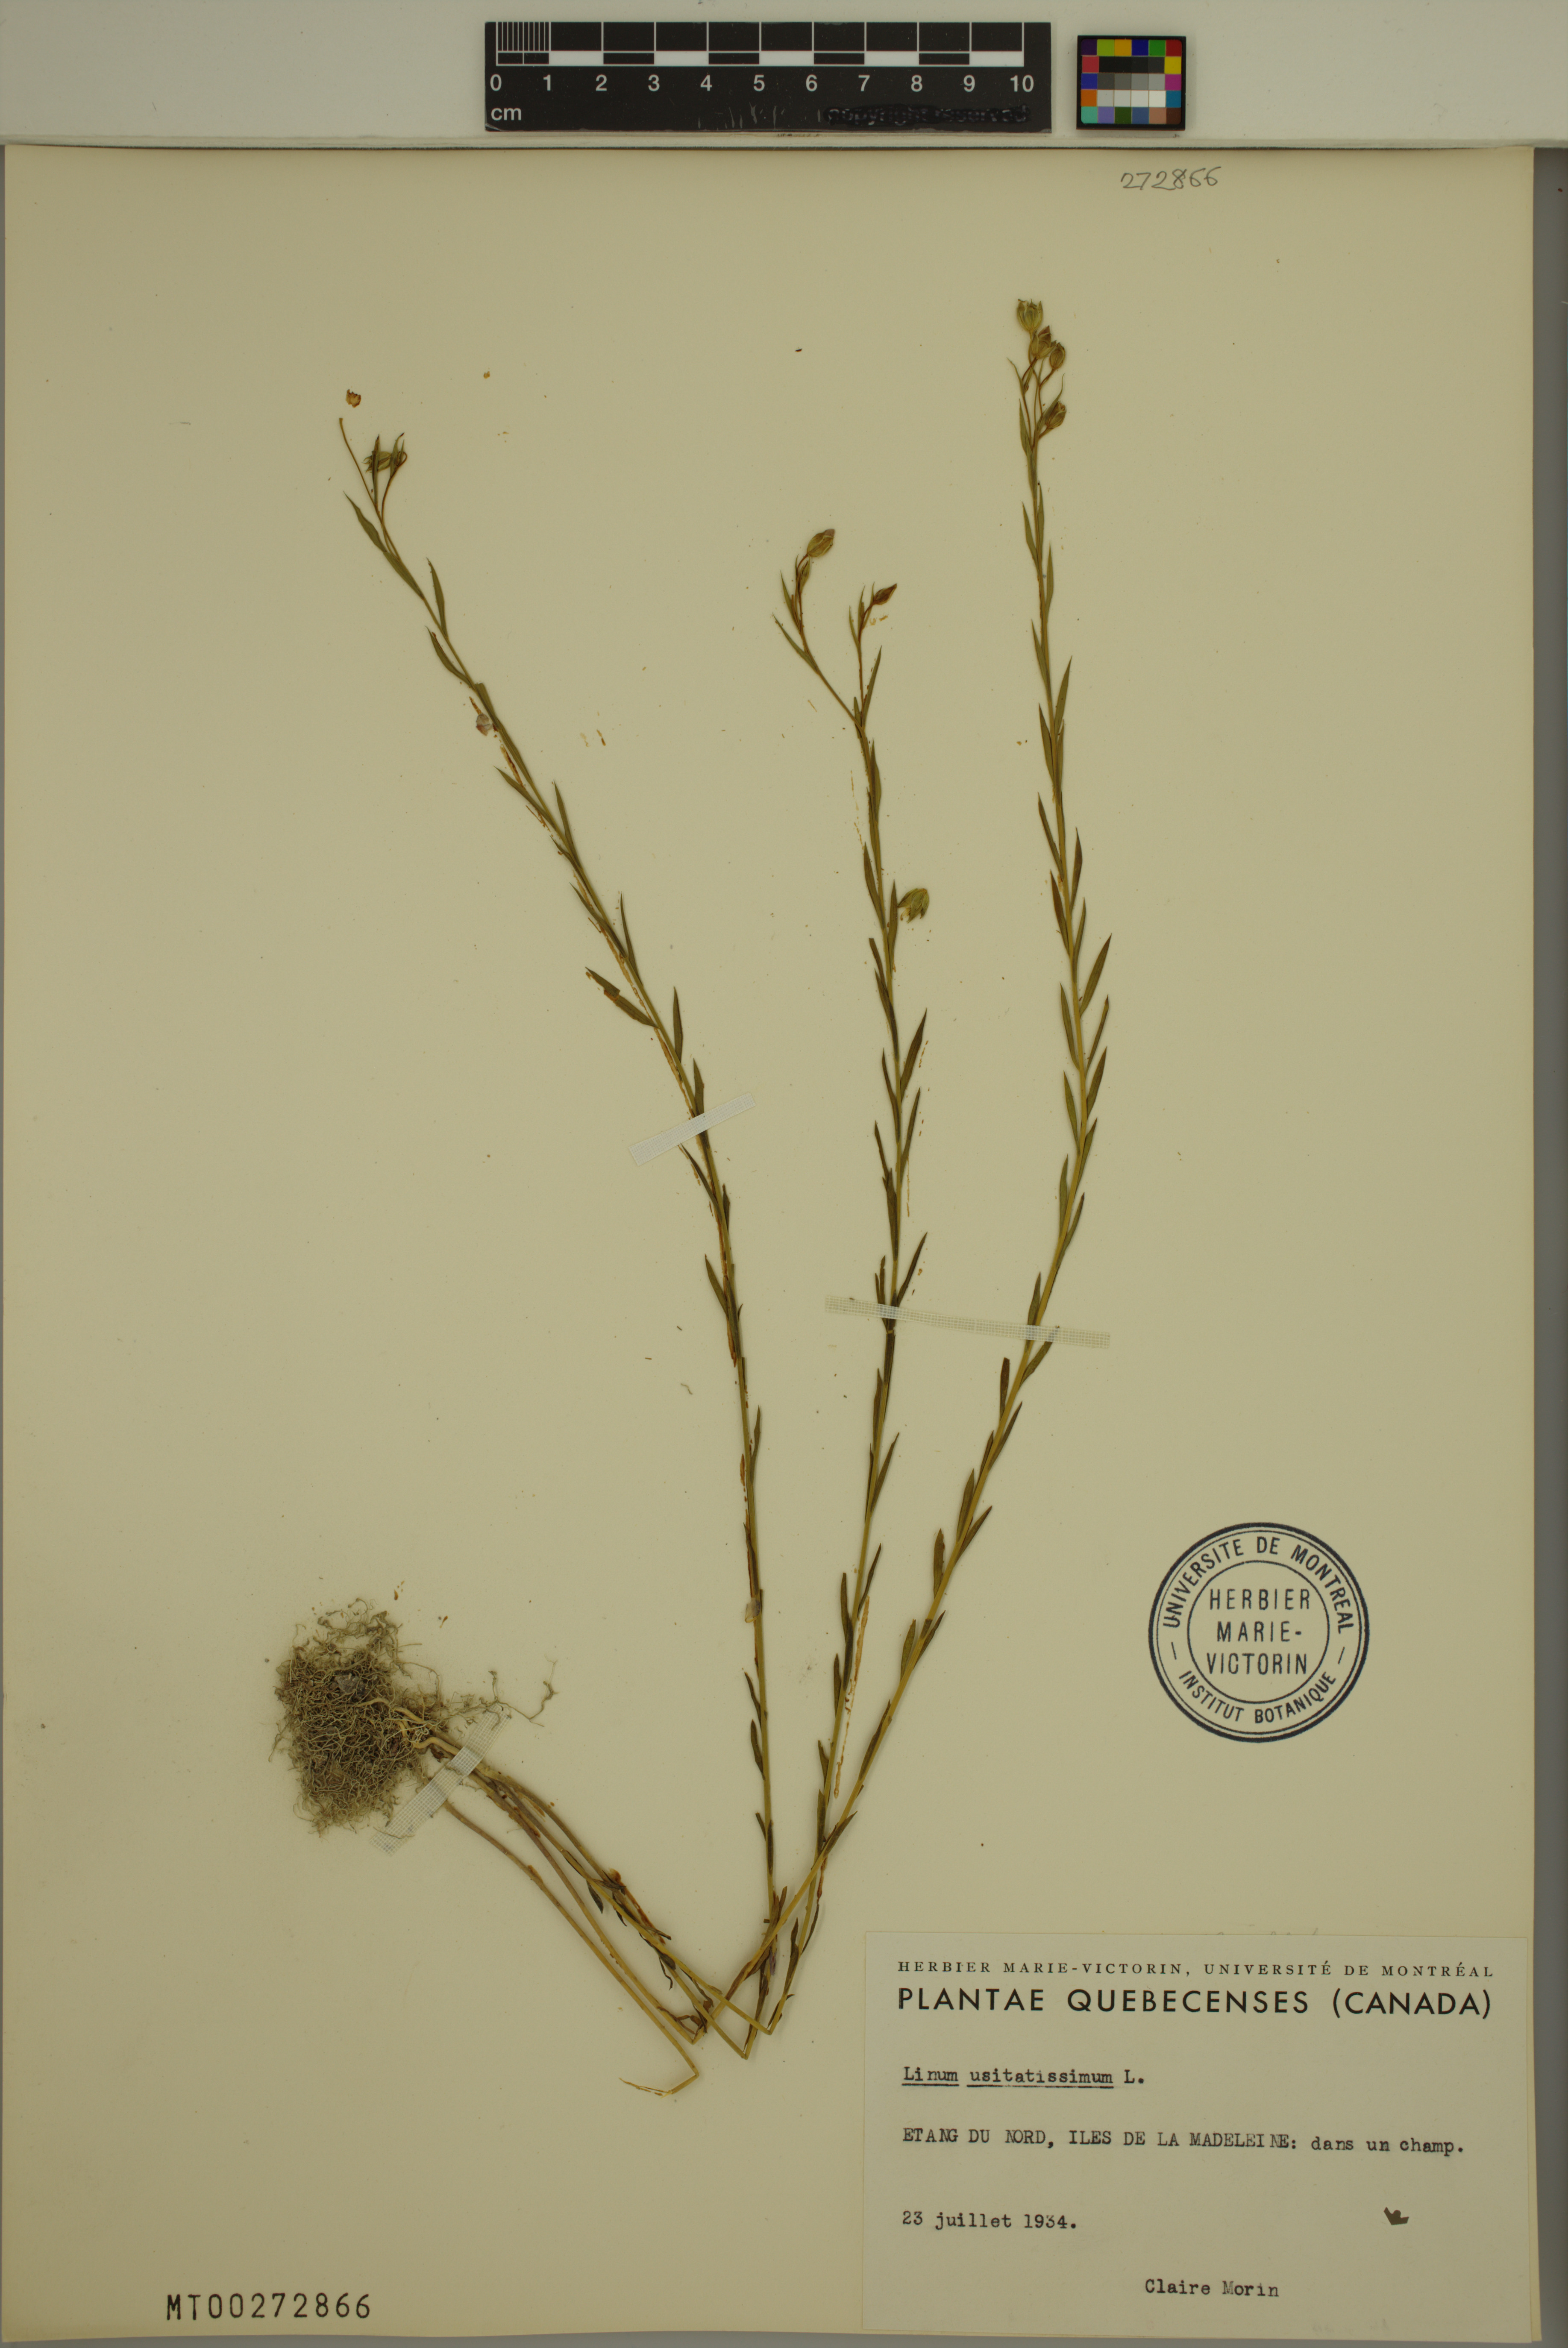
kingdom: Plantae
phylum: Tracheophyta
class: Magnoliopsida
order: Malpighiales
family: Linaceae
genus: Linum
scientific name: Linum usitatissimum
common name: Flax
